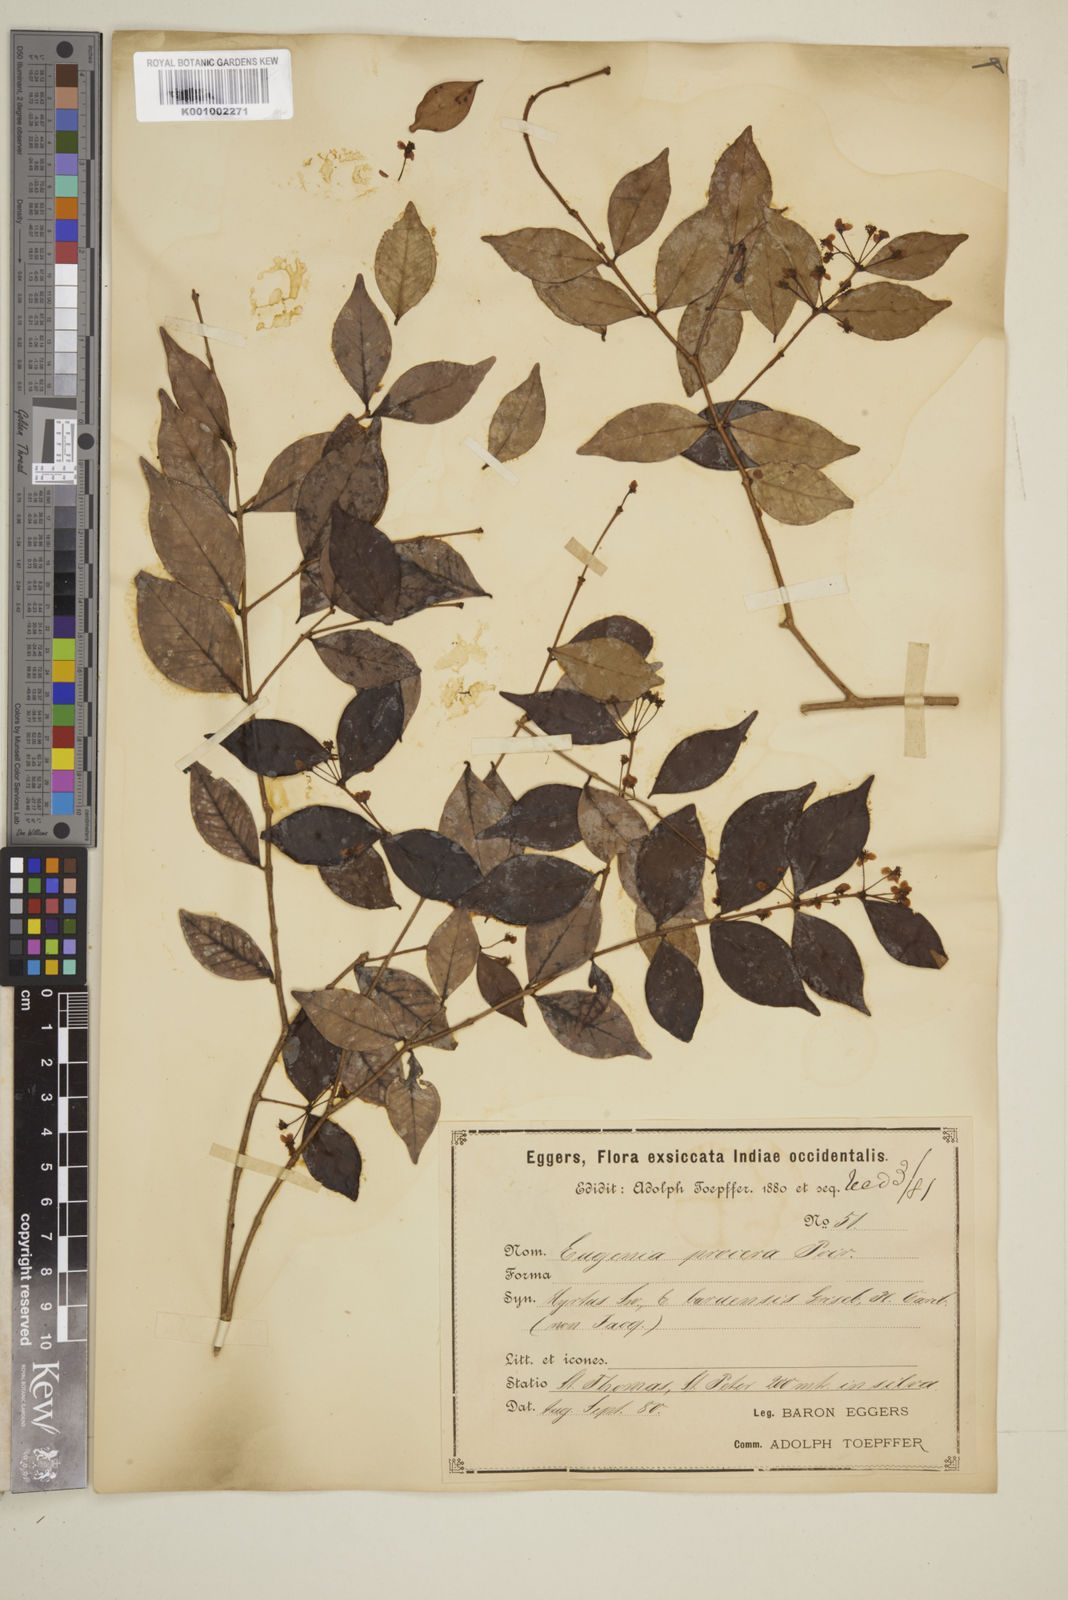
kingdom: Plantae
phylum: Tracheophyta
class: Magnoliopsida
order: Myrtales
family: Myrtaceae
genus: Eugenia
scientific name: Eugenia procera
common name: Bastard blackberry
